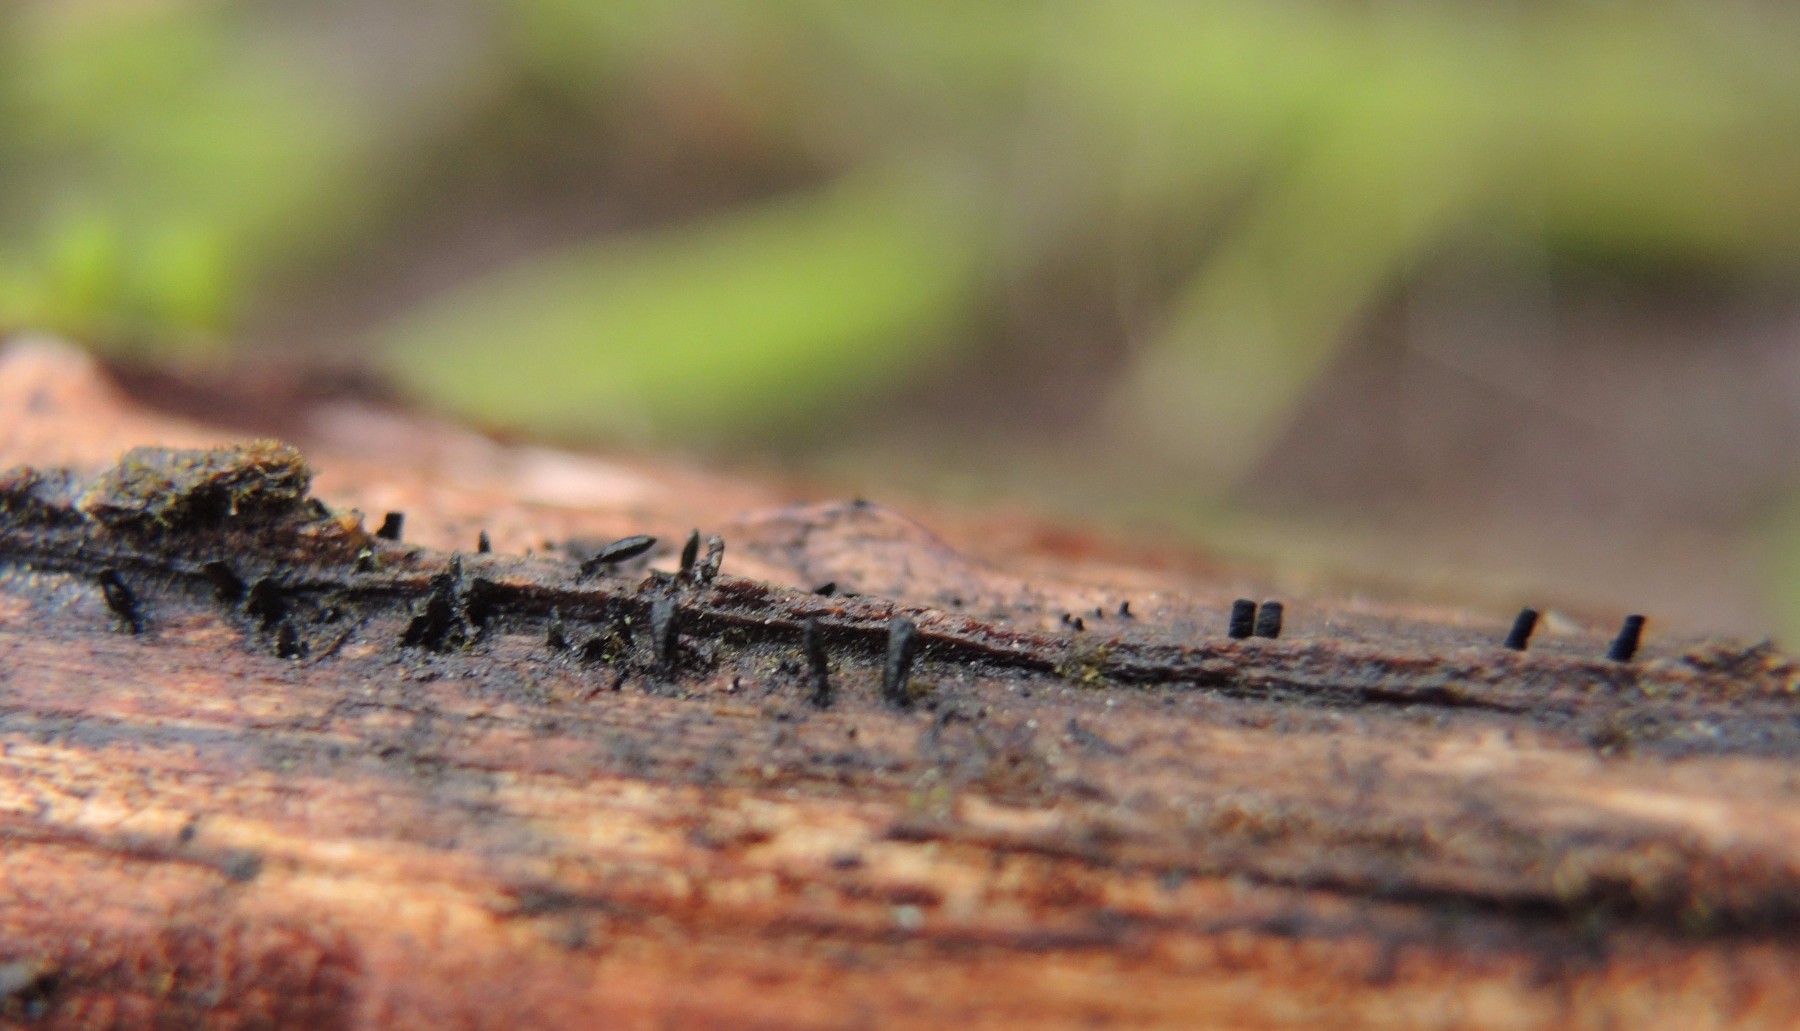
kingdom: Fungi
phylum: Ascomycota
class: Eurotiomycetes
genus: Glyphium
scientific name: Glyphium elatum
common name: kuløkse
